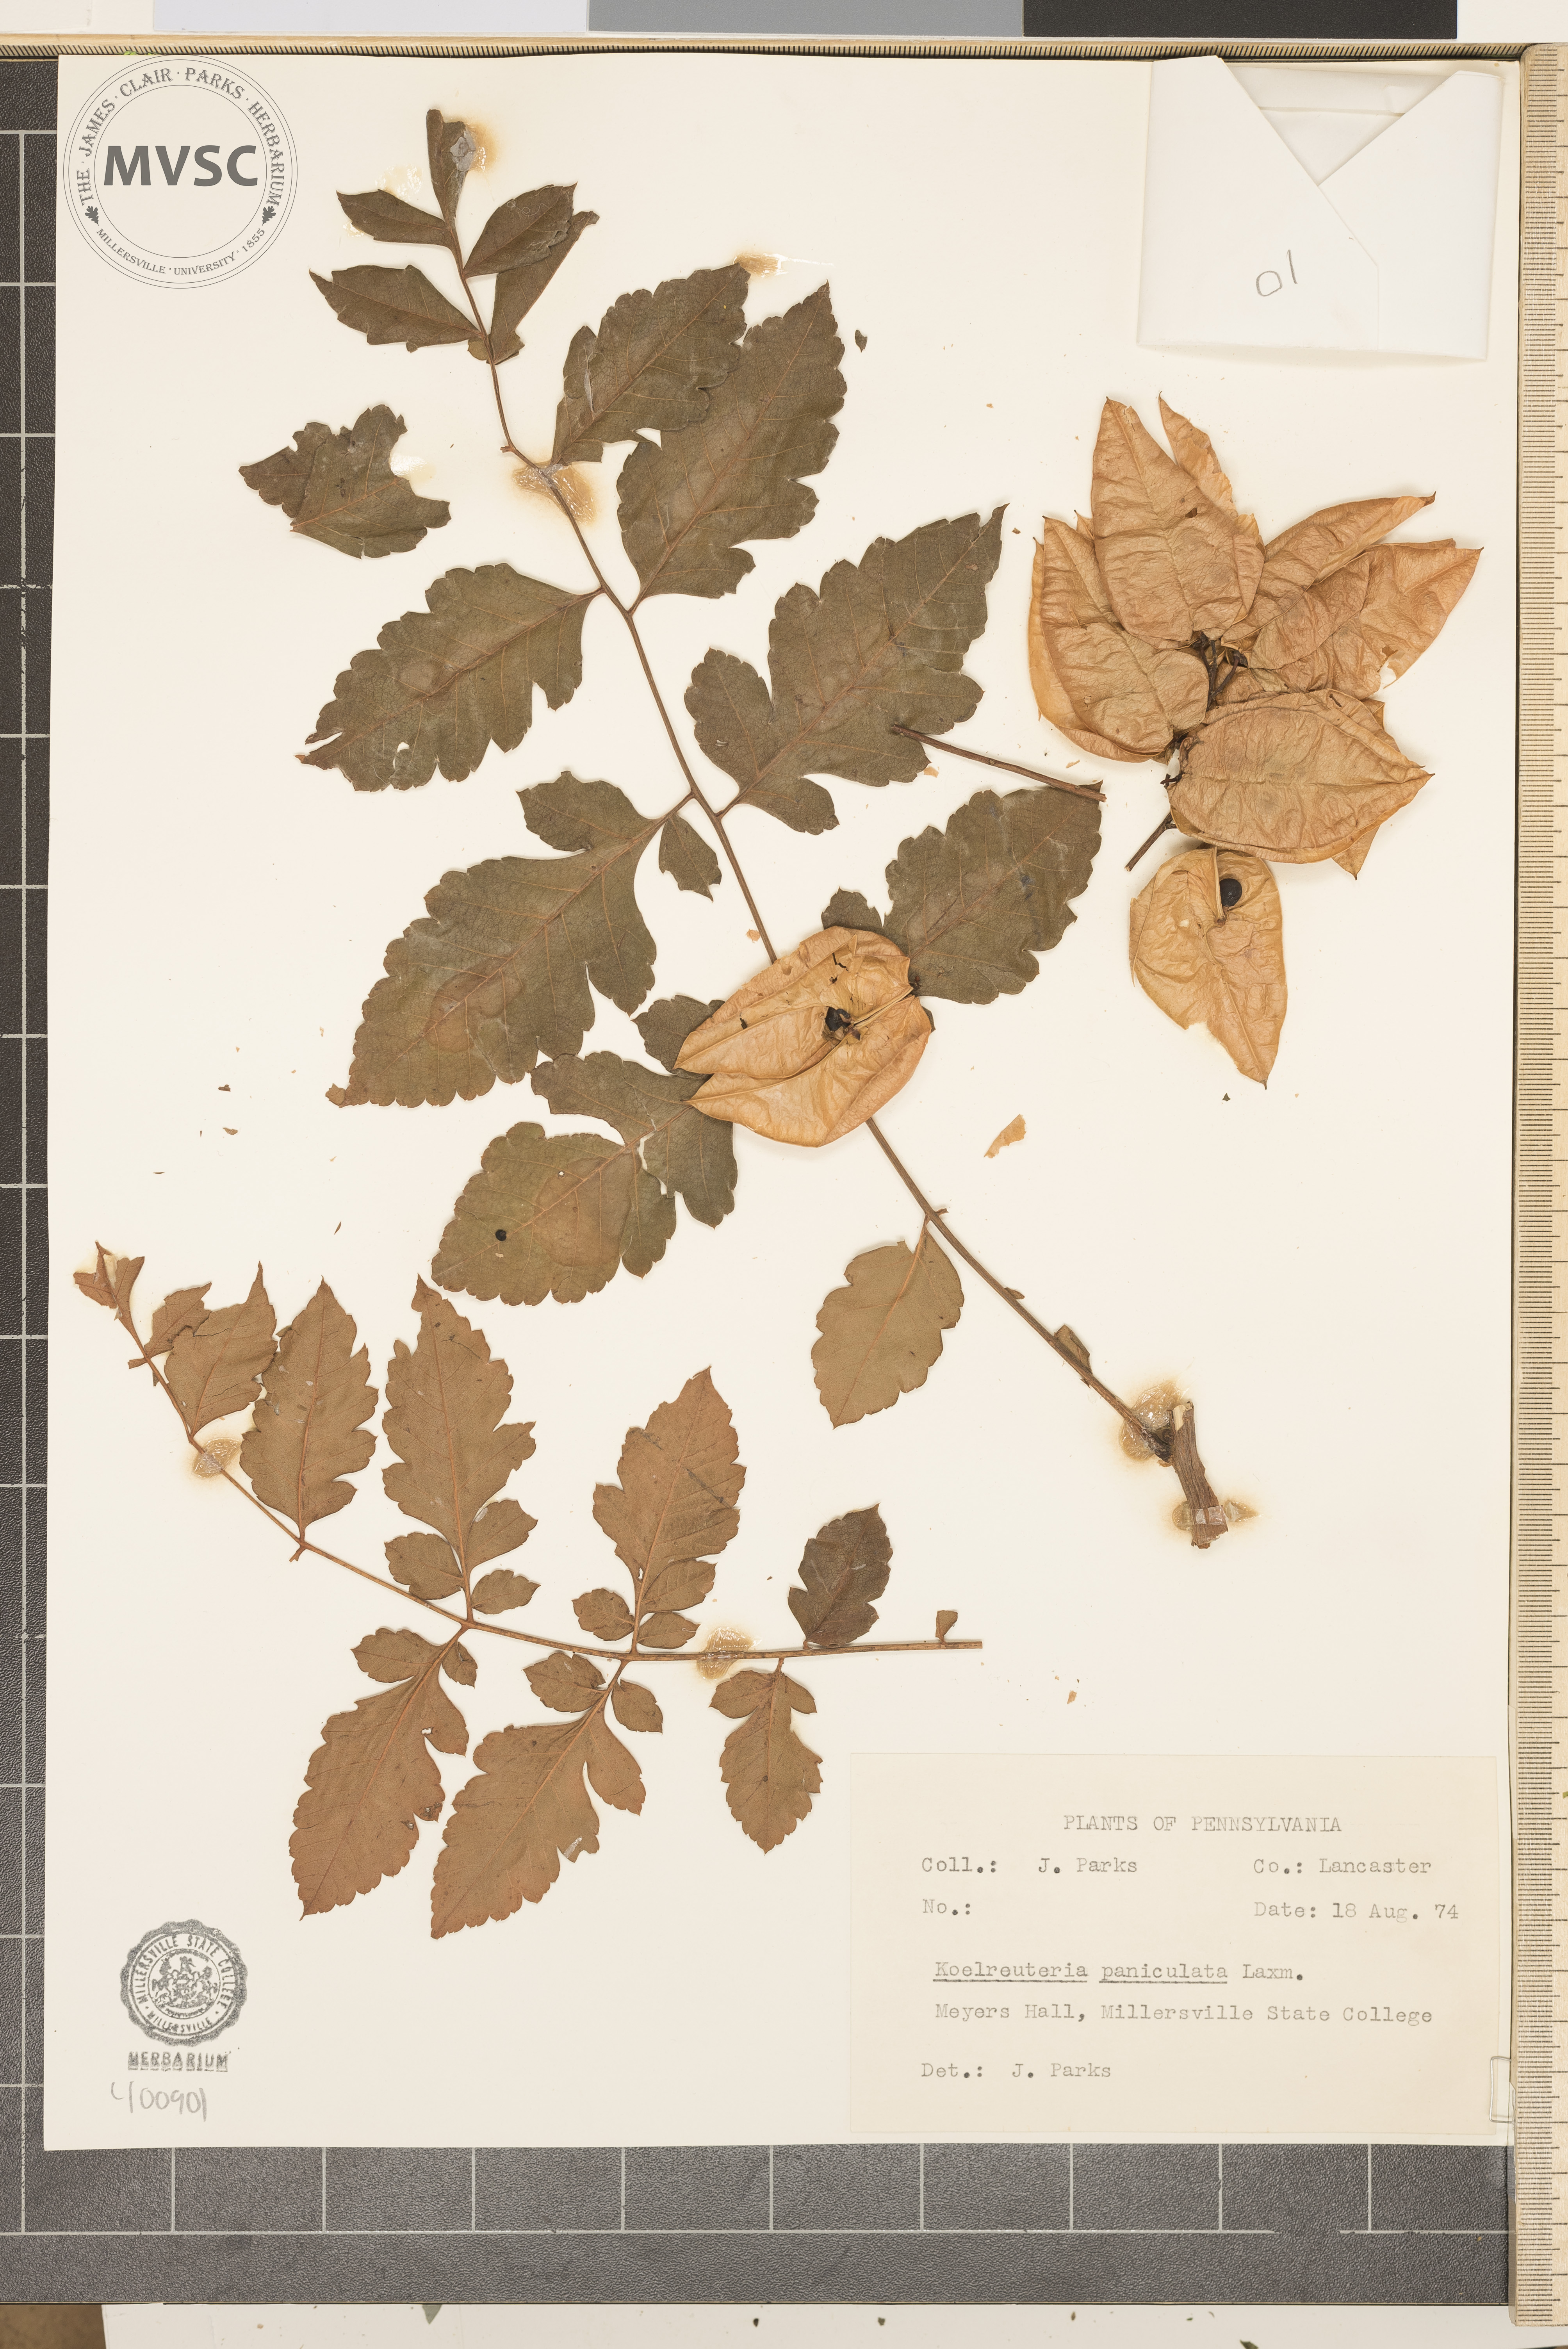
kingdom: Plantae
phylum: Tracheophyta
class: Magnoliopsida
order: Sapindales
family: Sapindaceae
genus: Koelreuteria
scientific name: Koelreuteria paniculata
